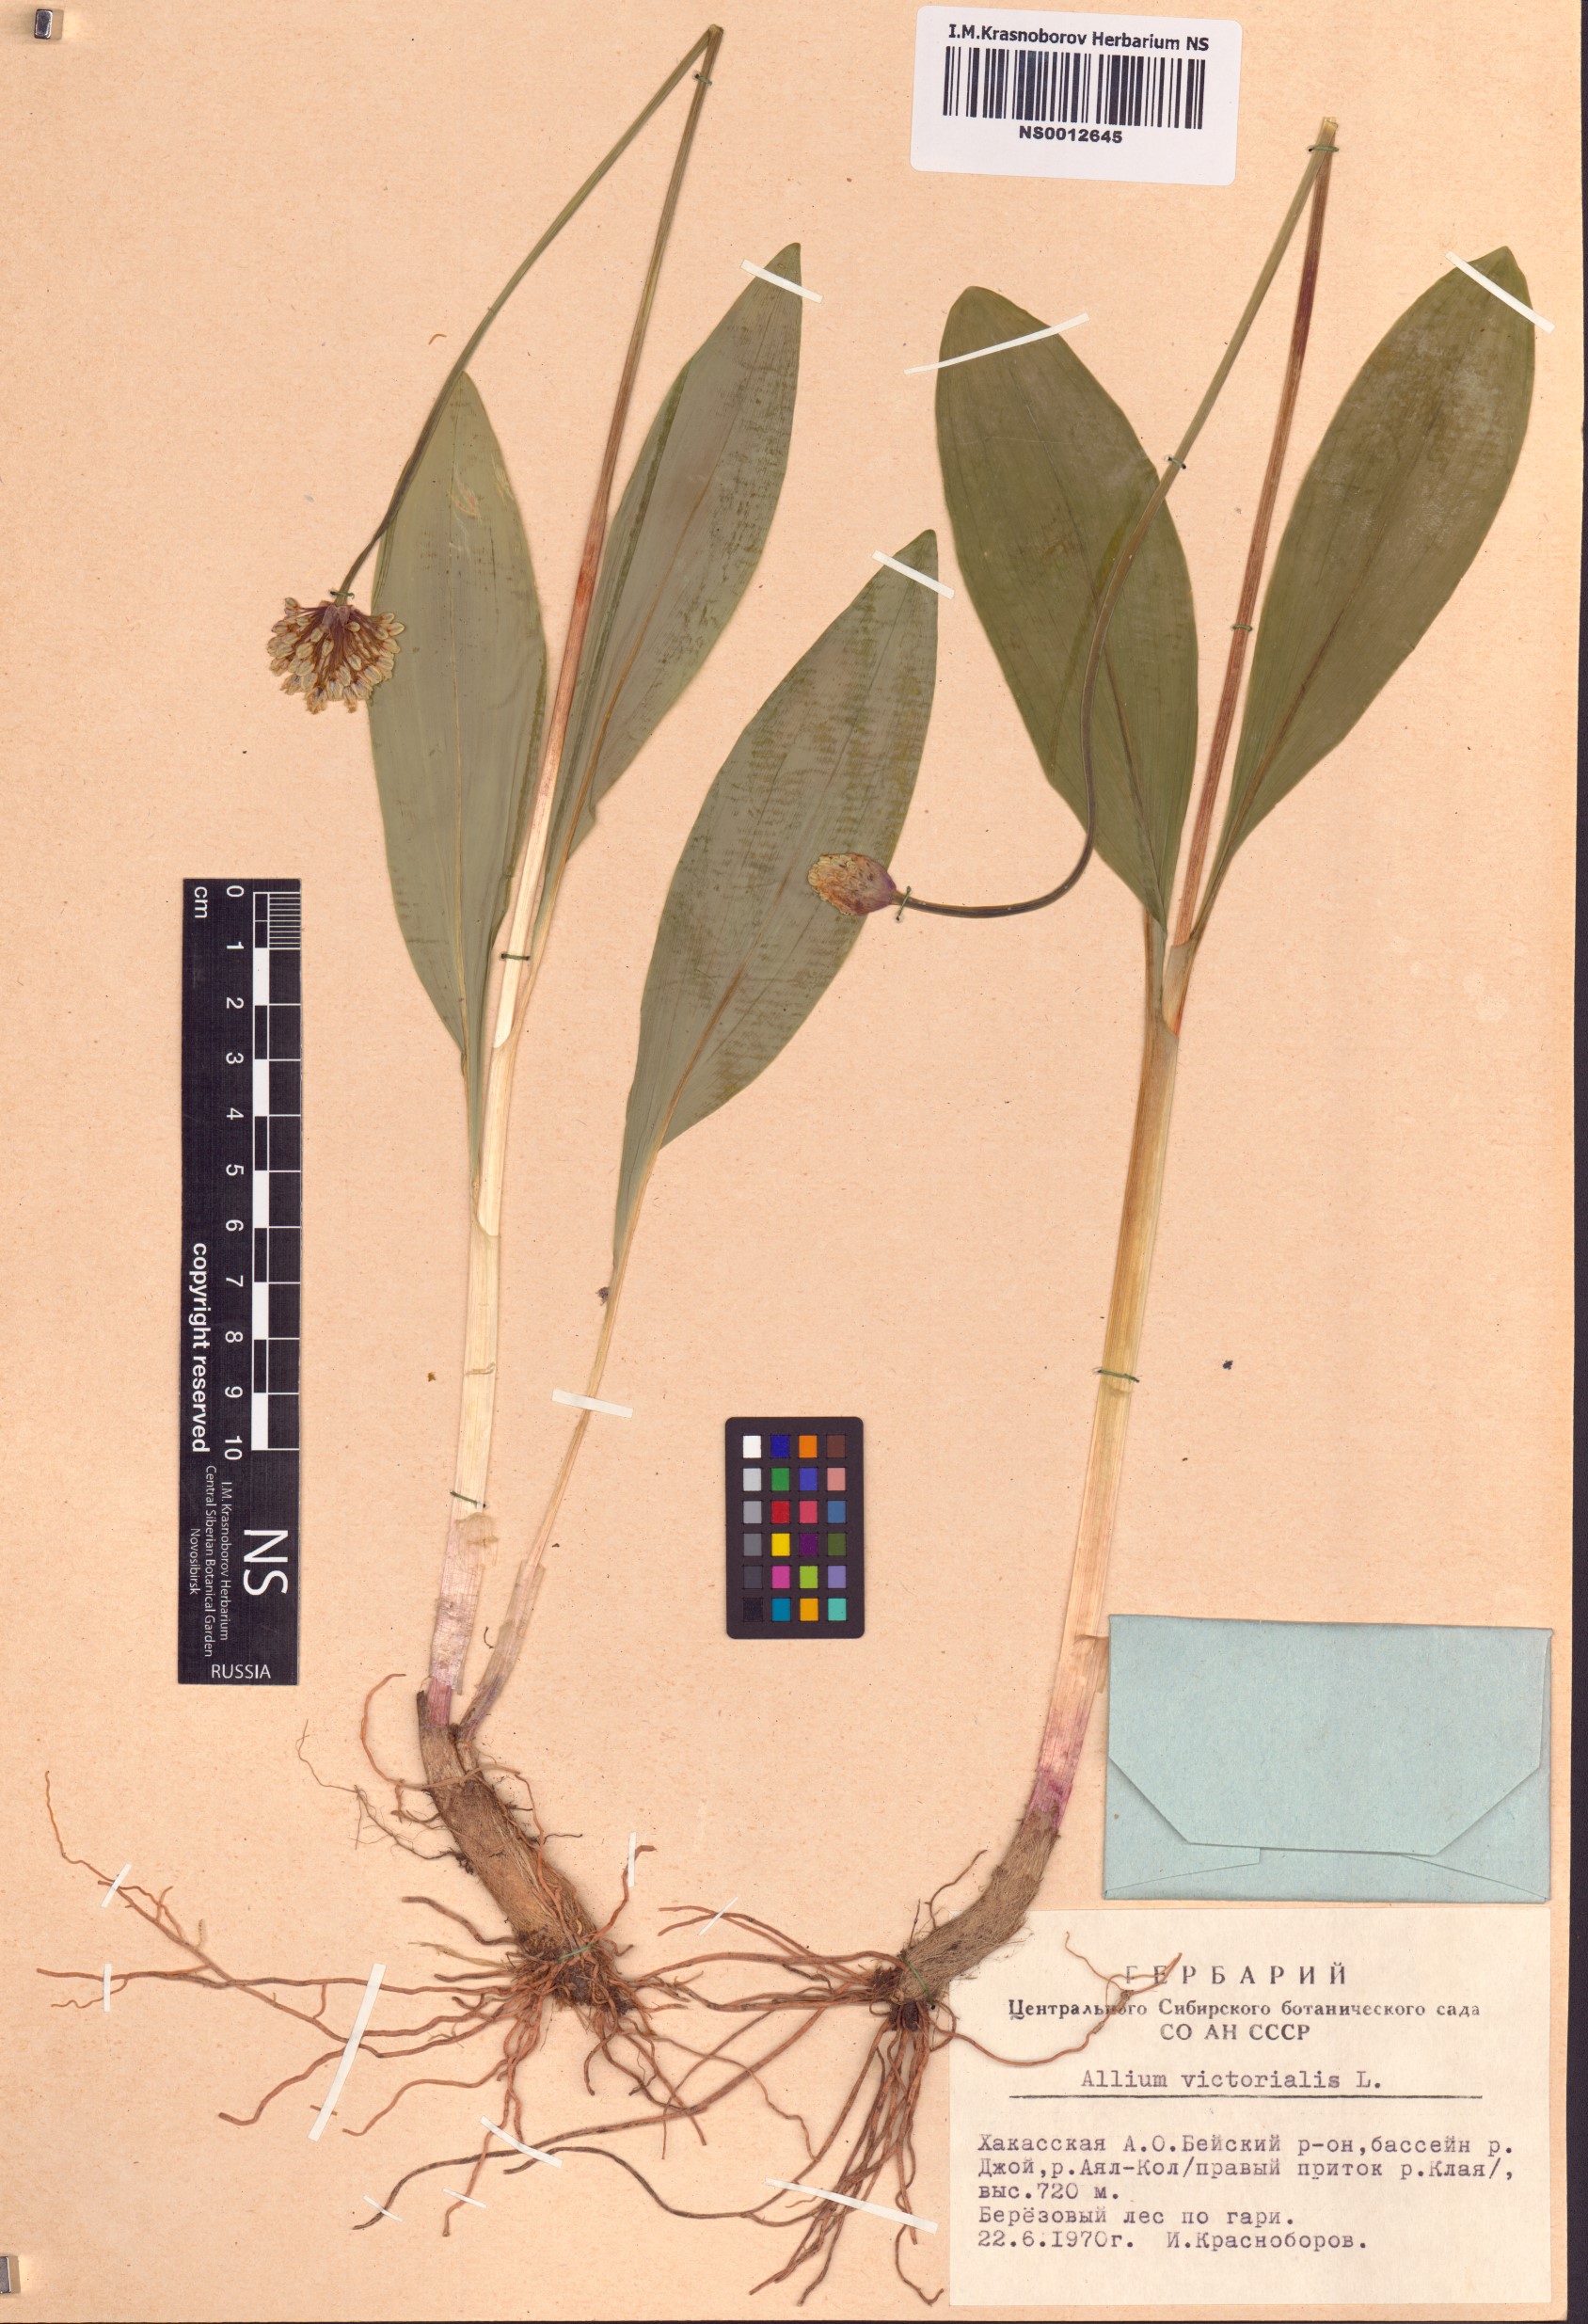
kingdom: Plantae
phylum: Tracheophyta
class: Liliopsida
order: Asparagales
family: Amaryllidaceae
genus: Allium
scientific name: Allium microdictyon
